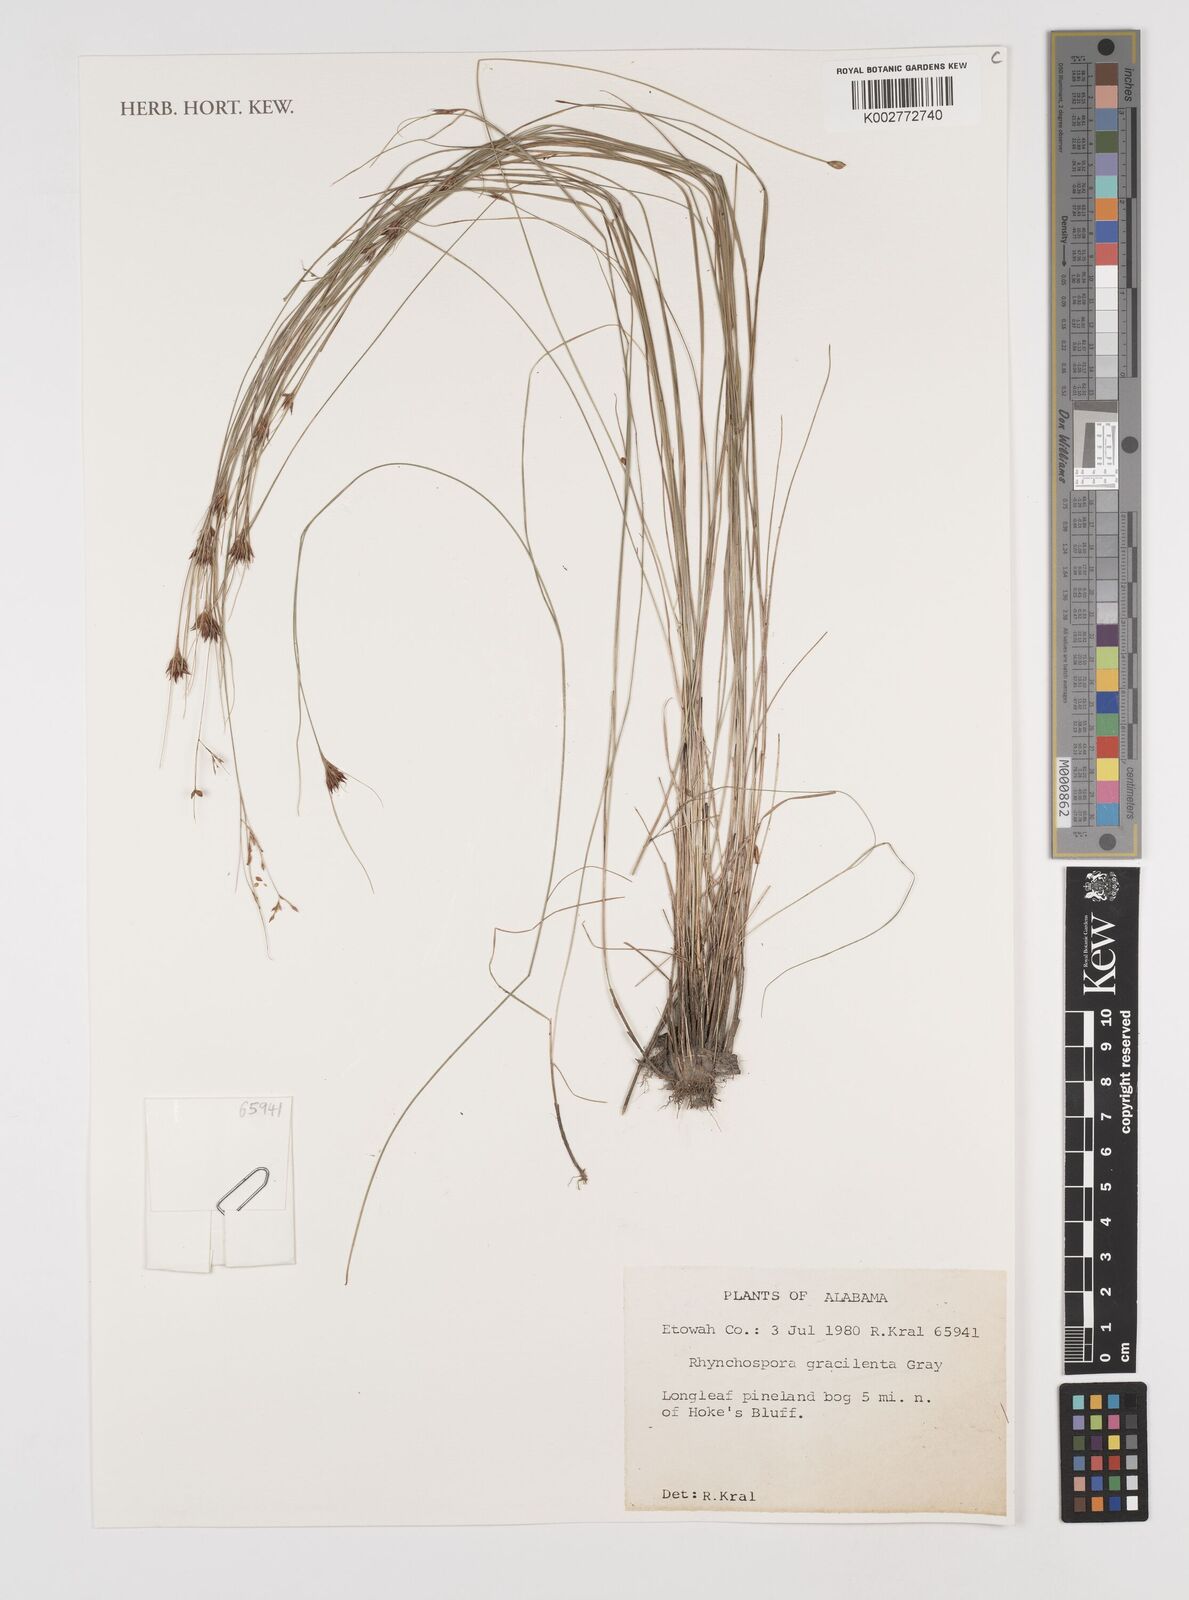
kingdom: Plantae
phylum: Tracheophyta
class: Liliopsida
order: Poales
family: Cyperaceae
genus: Rhynchospora
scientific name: Rhynchospora gracilenta
